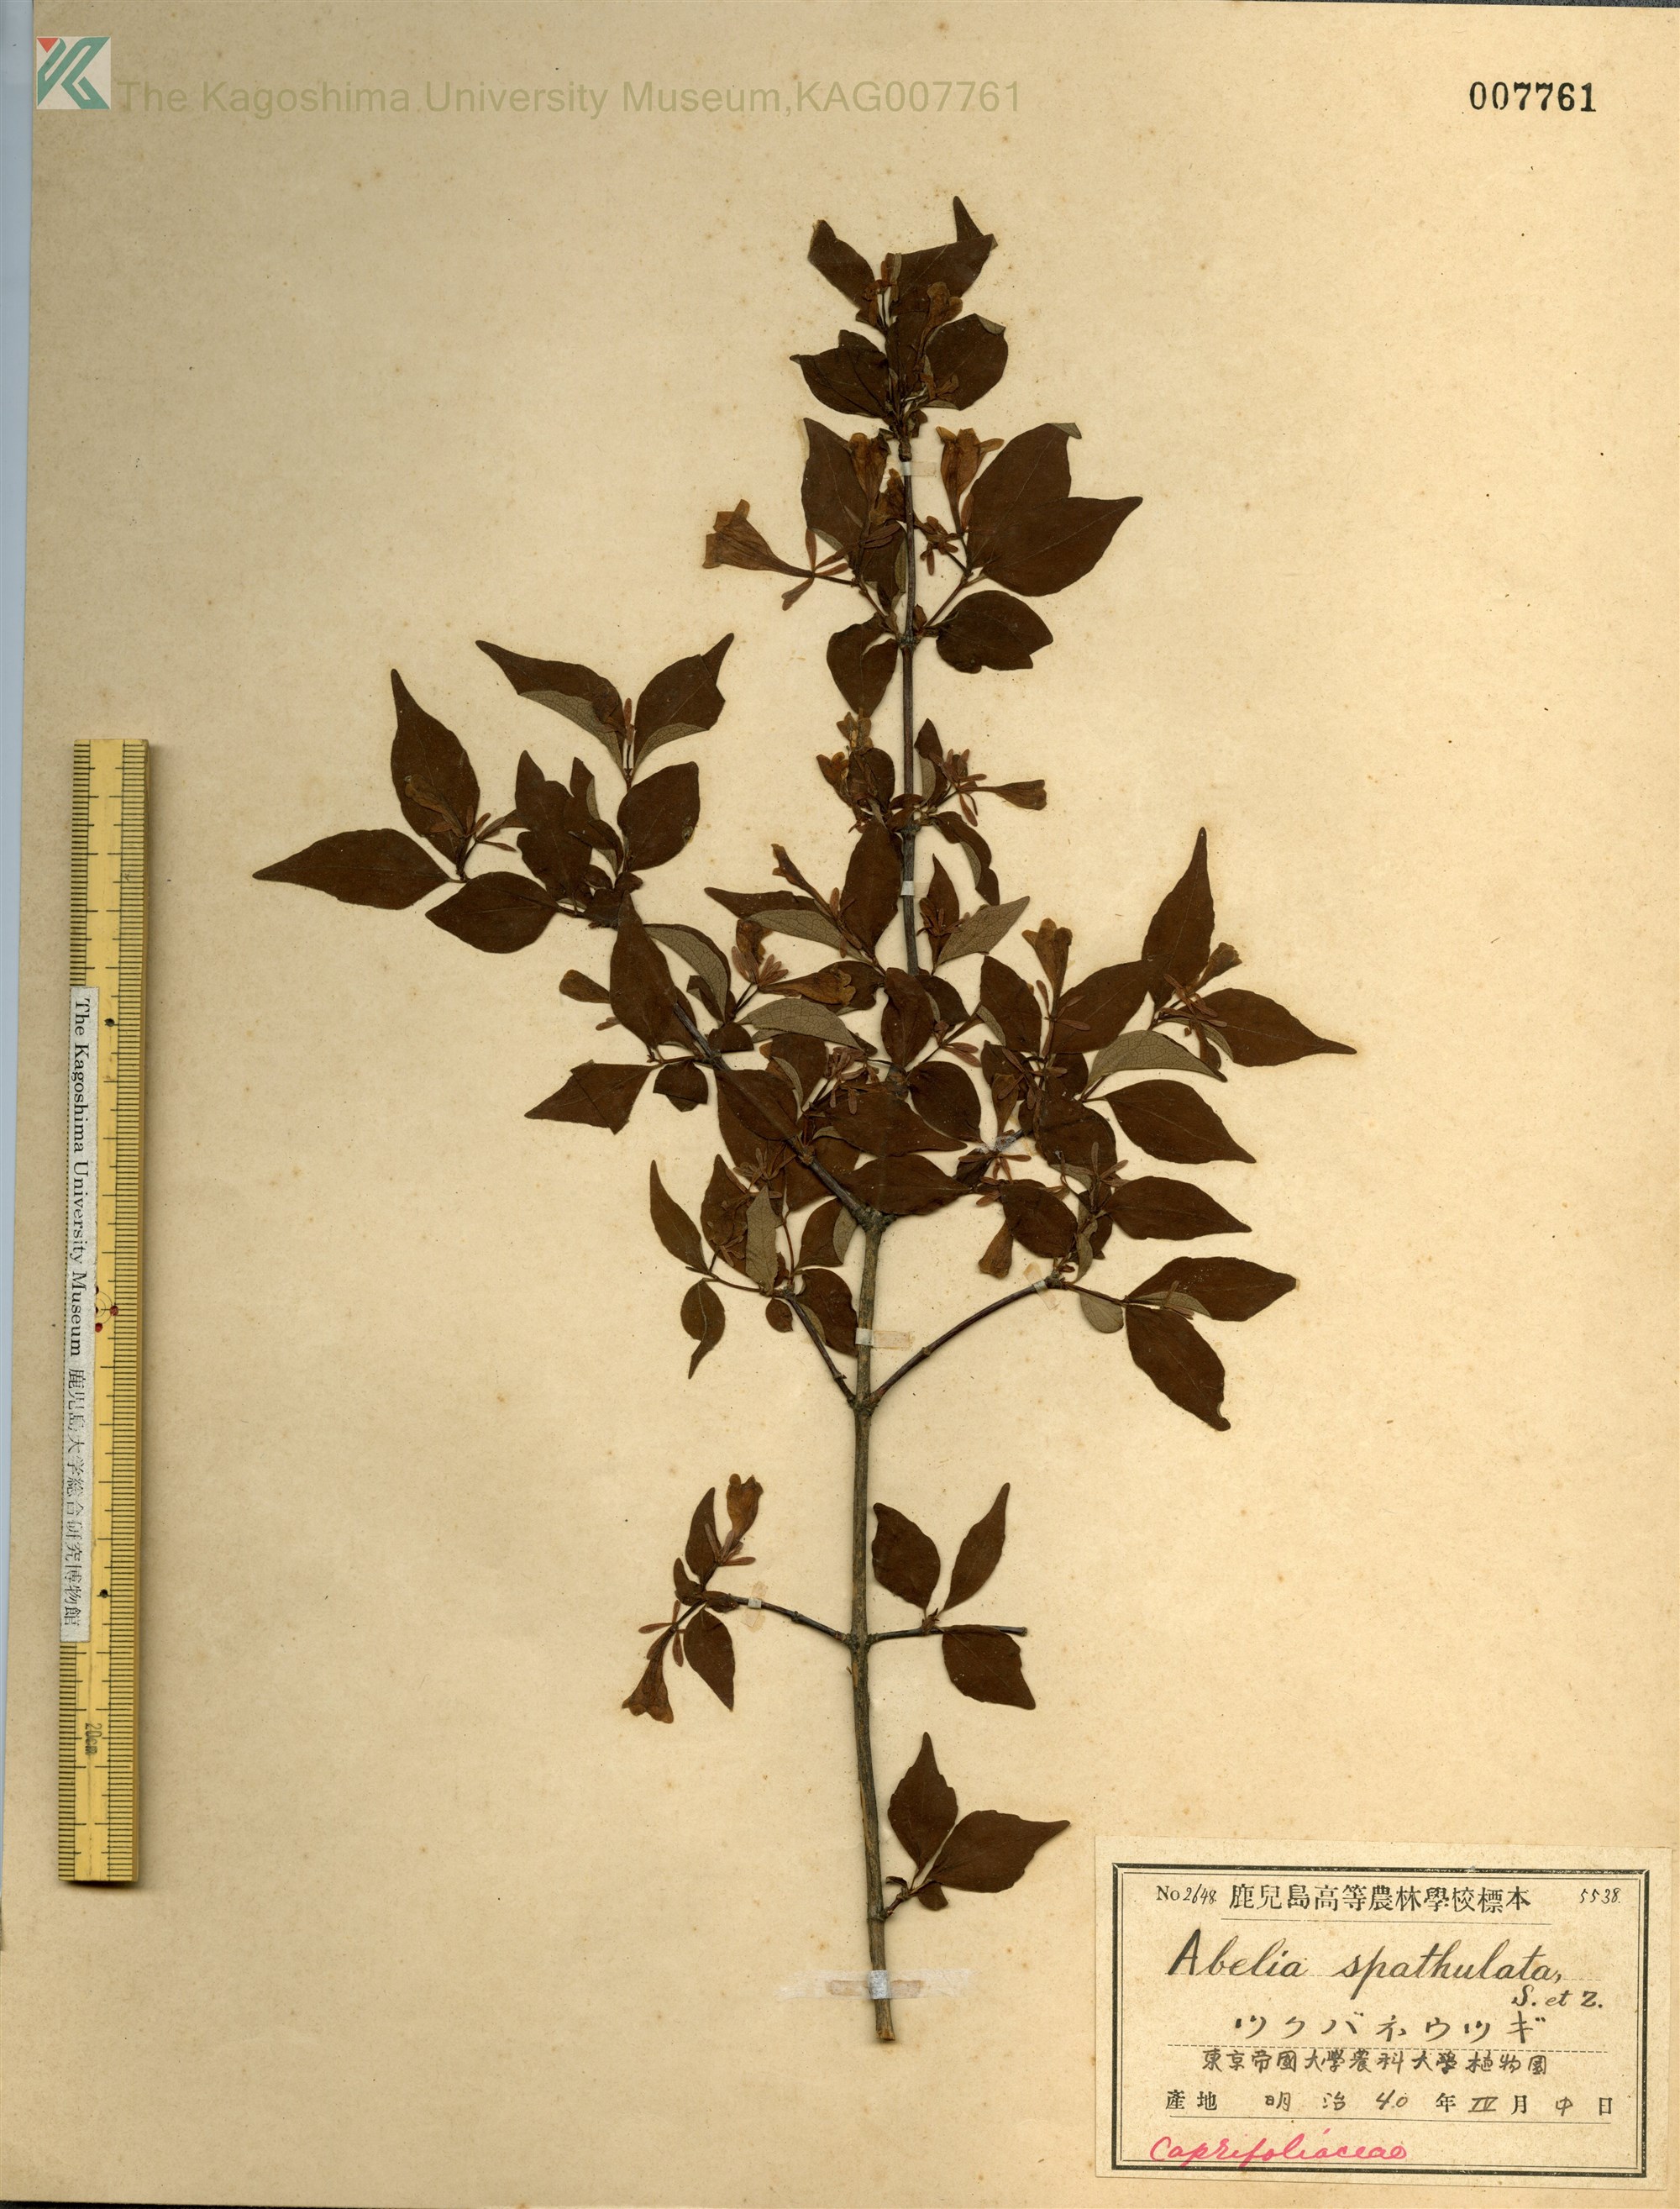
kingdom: Plantae
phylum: Tracheophyta
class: Magnoliopsida
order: Dipsacales
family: Caprifoliaceae
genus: Diabelia
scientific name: Diabelia spathulata
